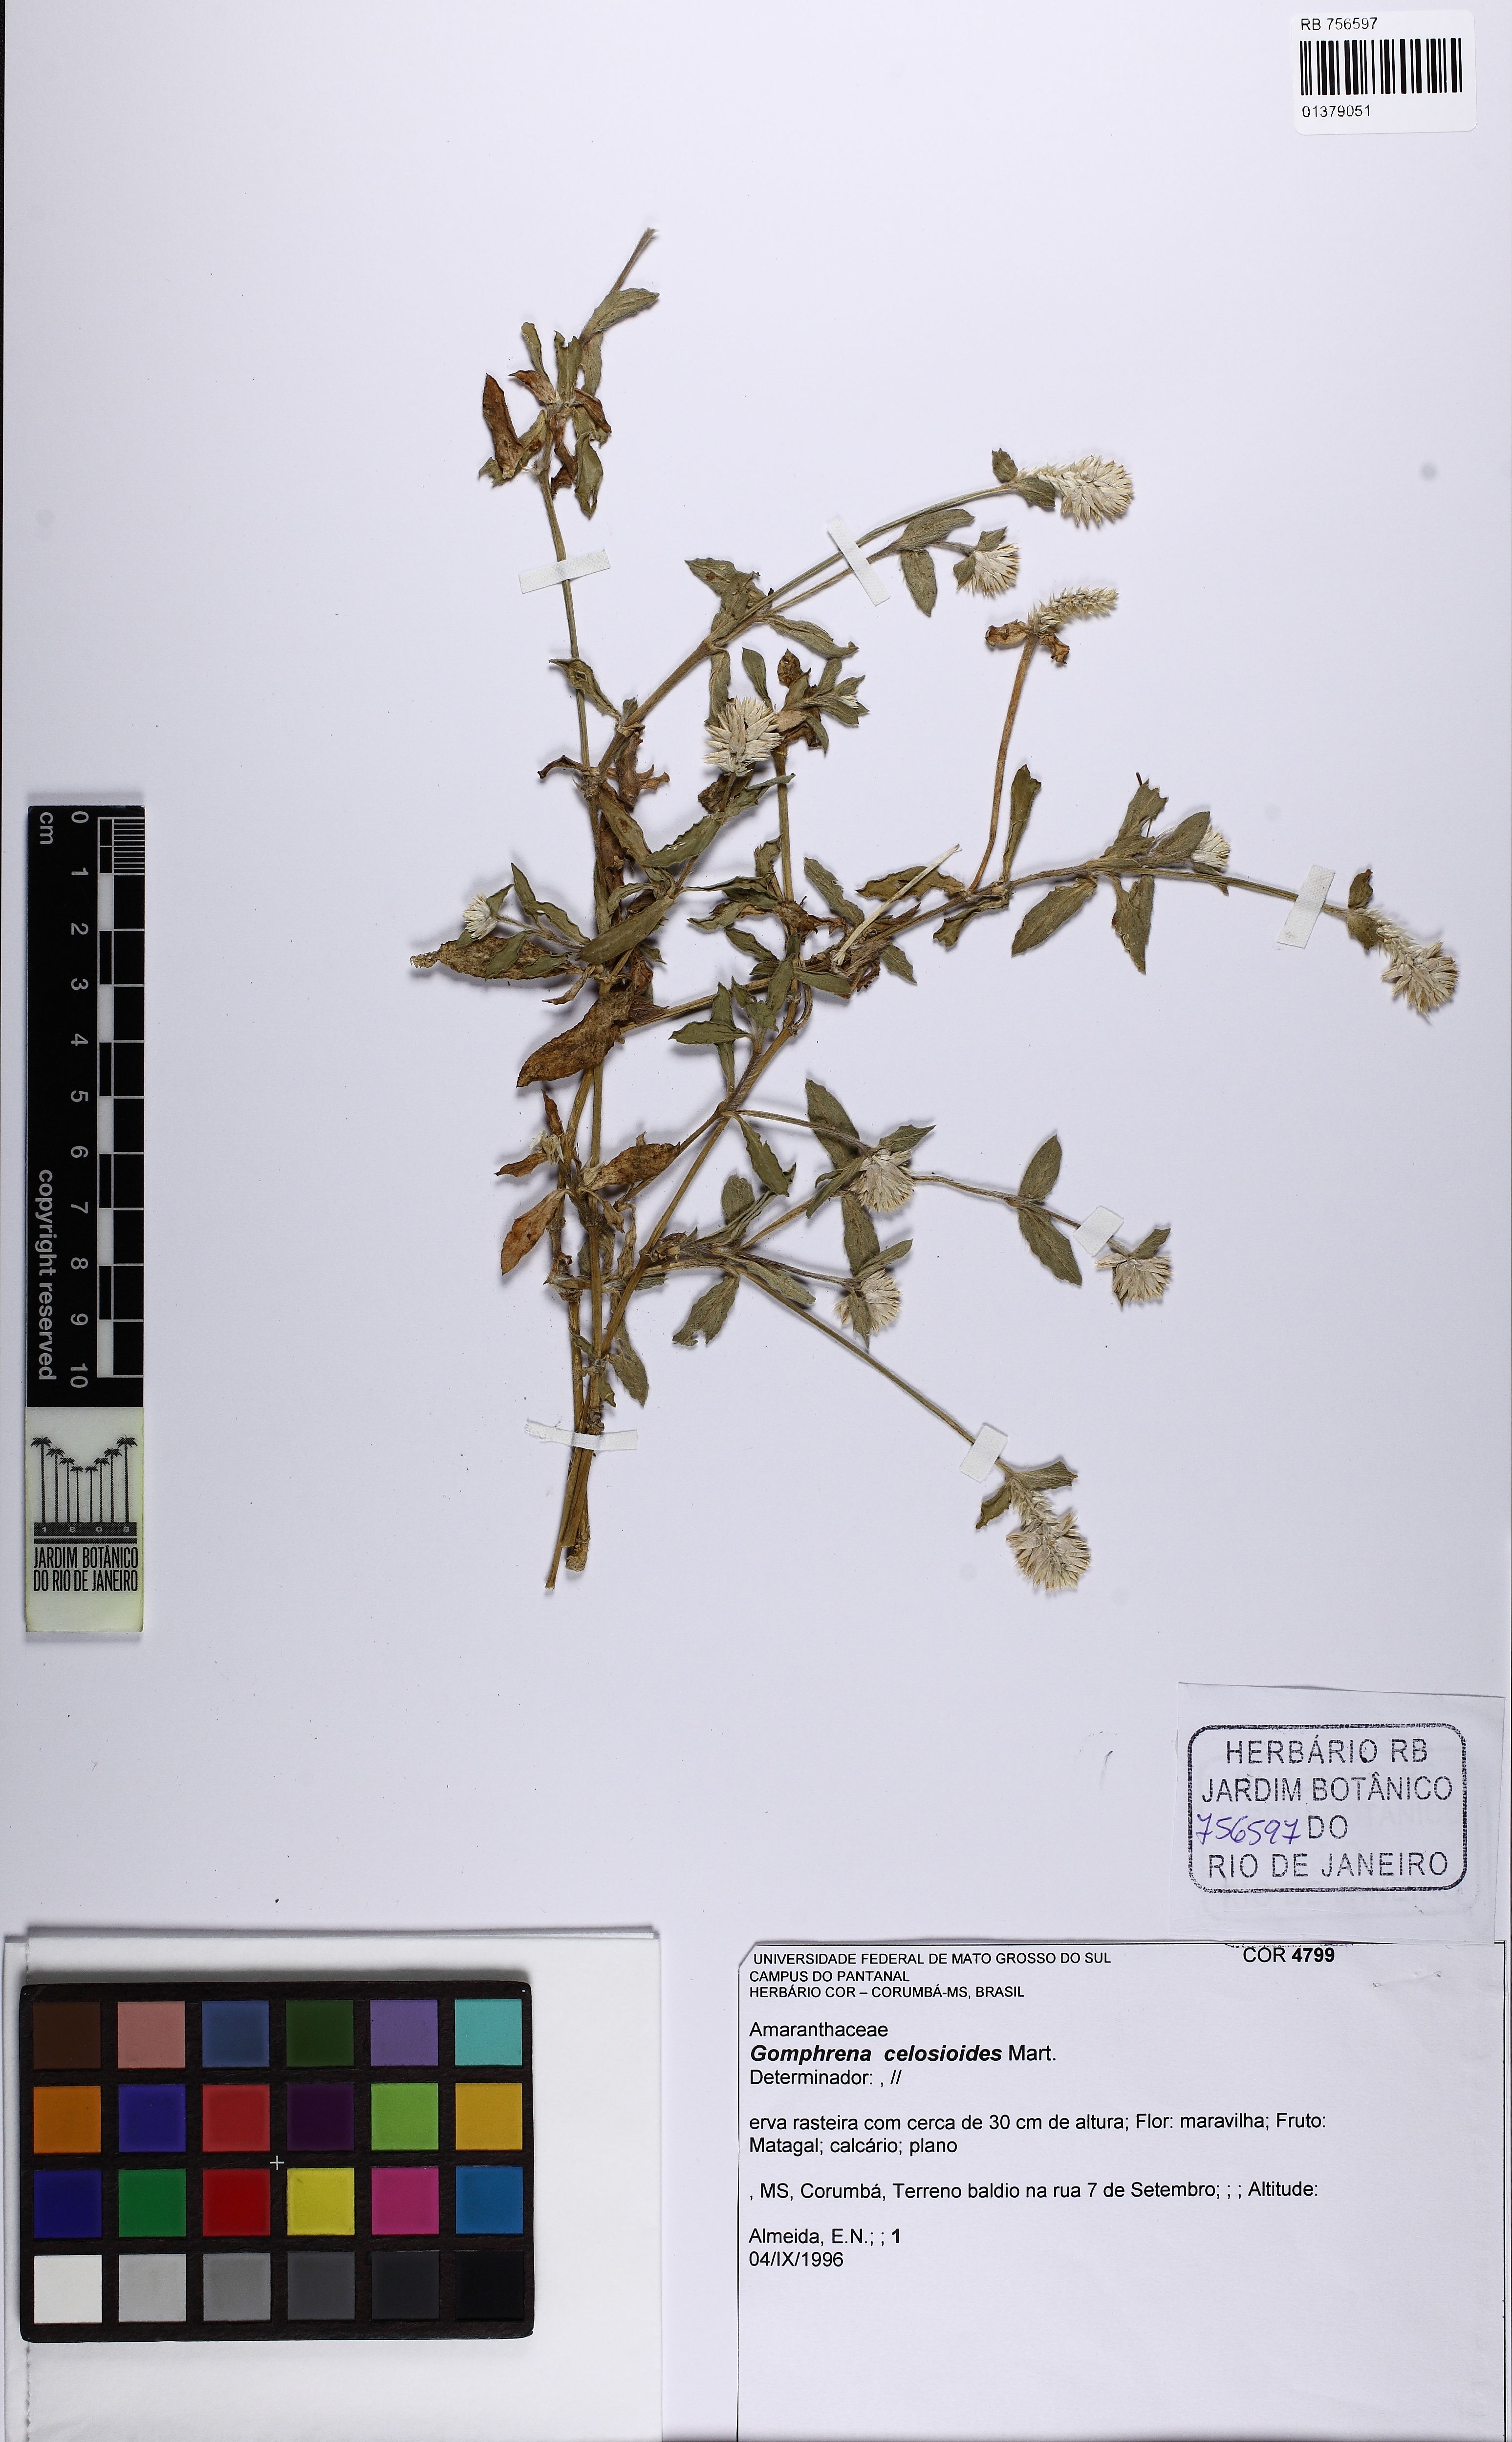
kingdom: Plantae
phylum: Tracheophyta
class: Magnoliopsida
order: Caryophyllales
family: Amaranthaceae
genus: Gomphrena
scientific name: Gomphrena celosioides
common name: Gomphrena-weed
